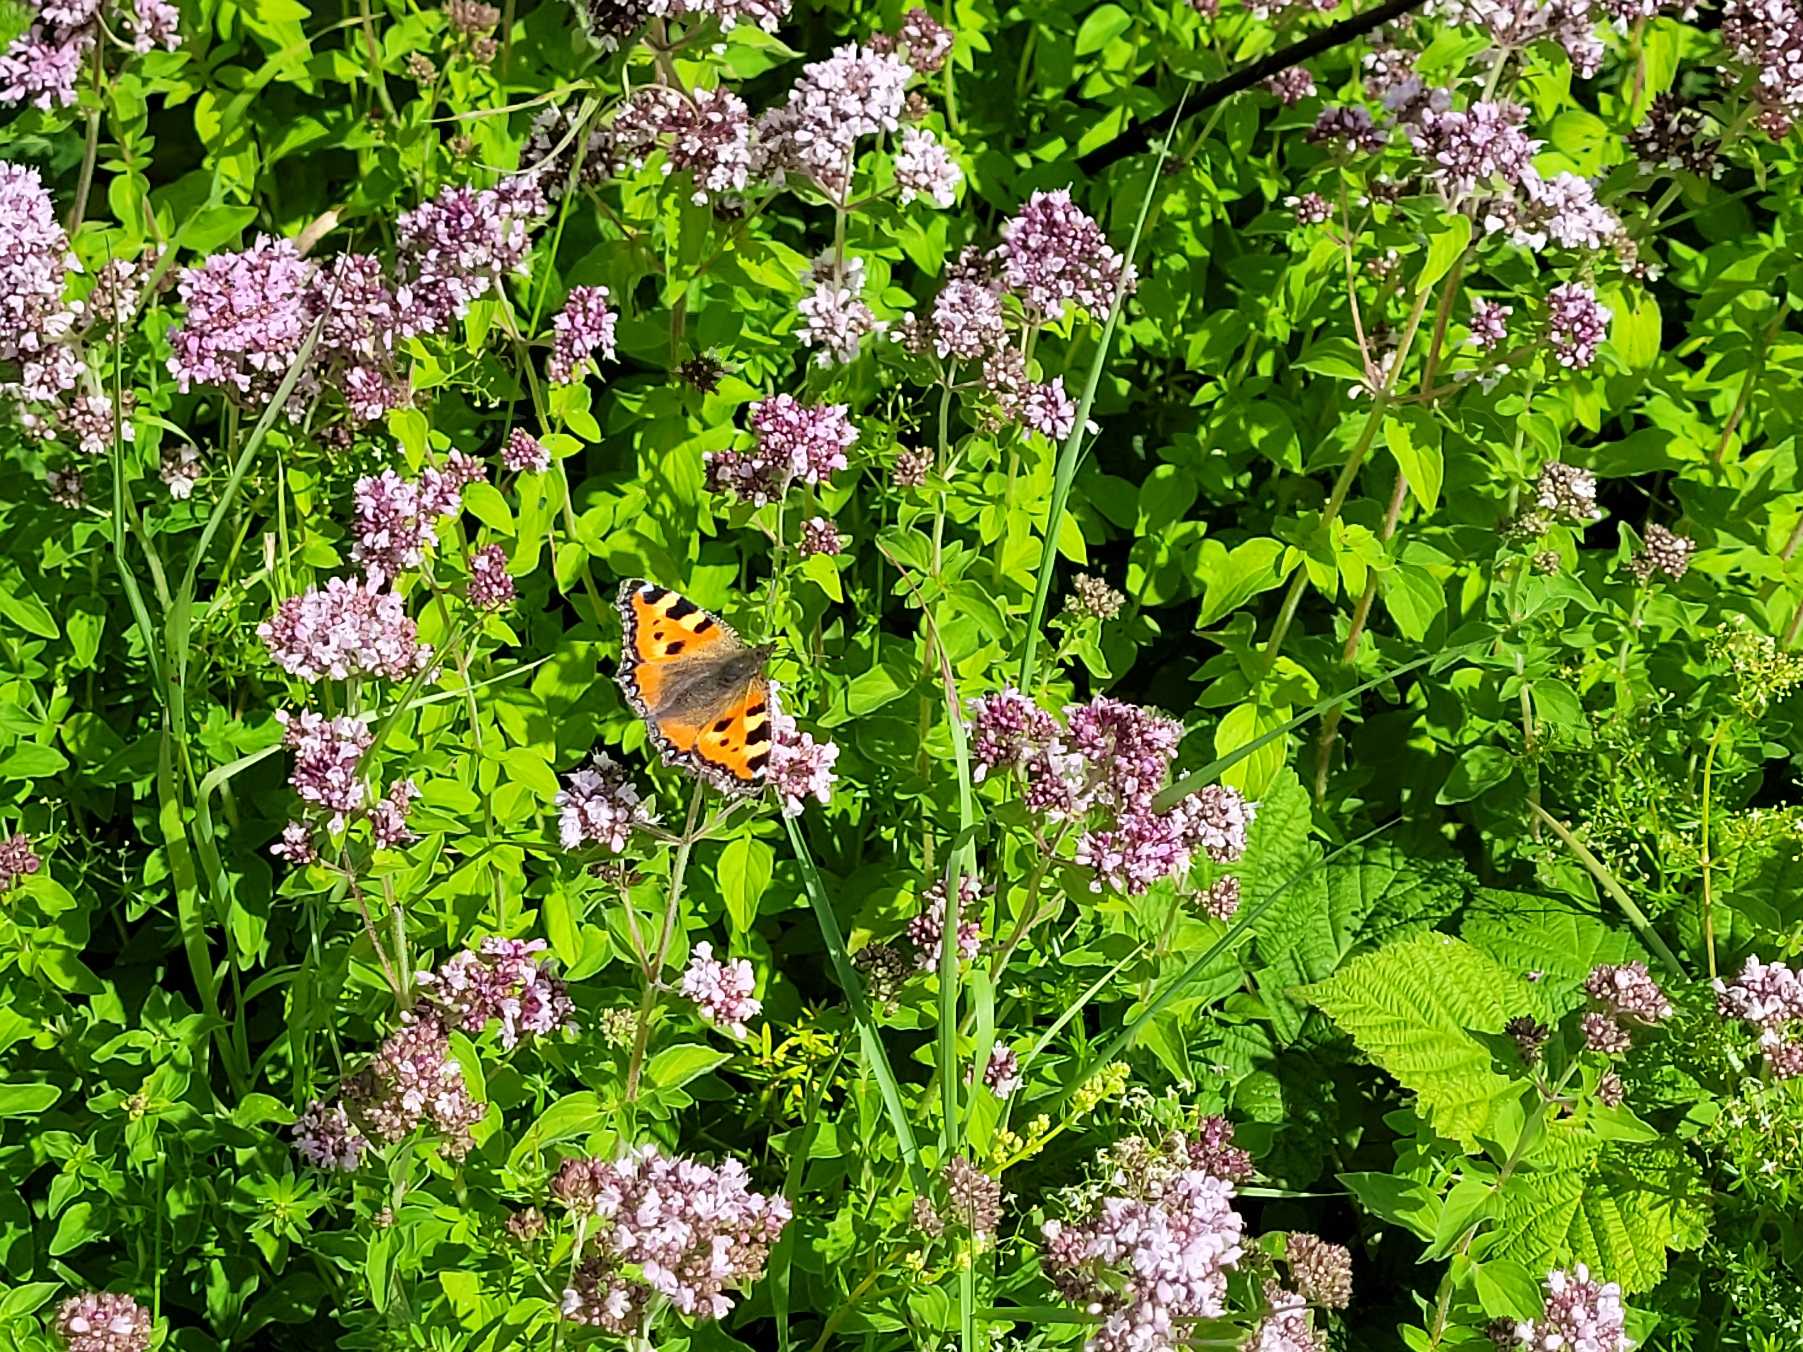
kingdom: Animalia
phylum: Arthropoda
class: Insecta
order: Lepidoptera
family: Nymphalidae
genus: Aglais
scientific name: Aglais urticae
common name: Nældens takvinge
